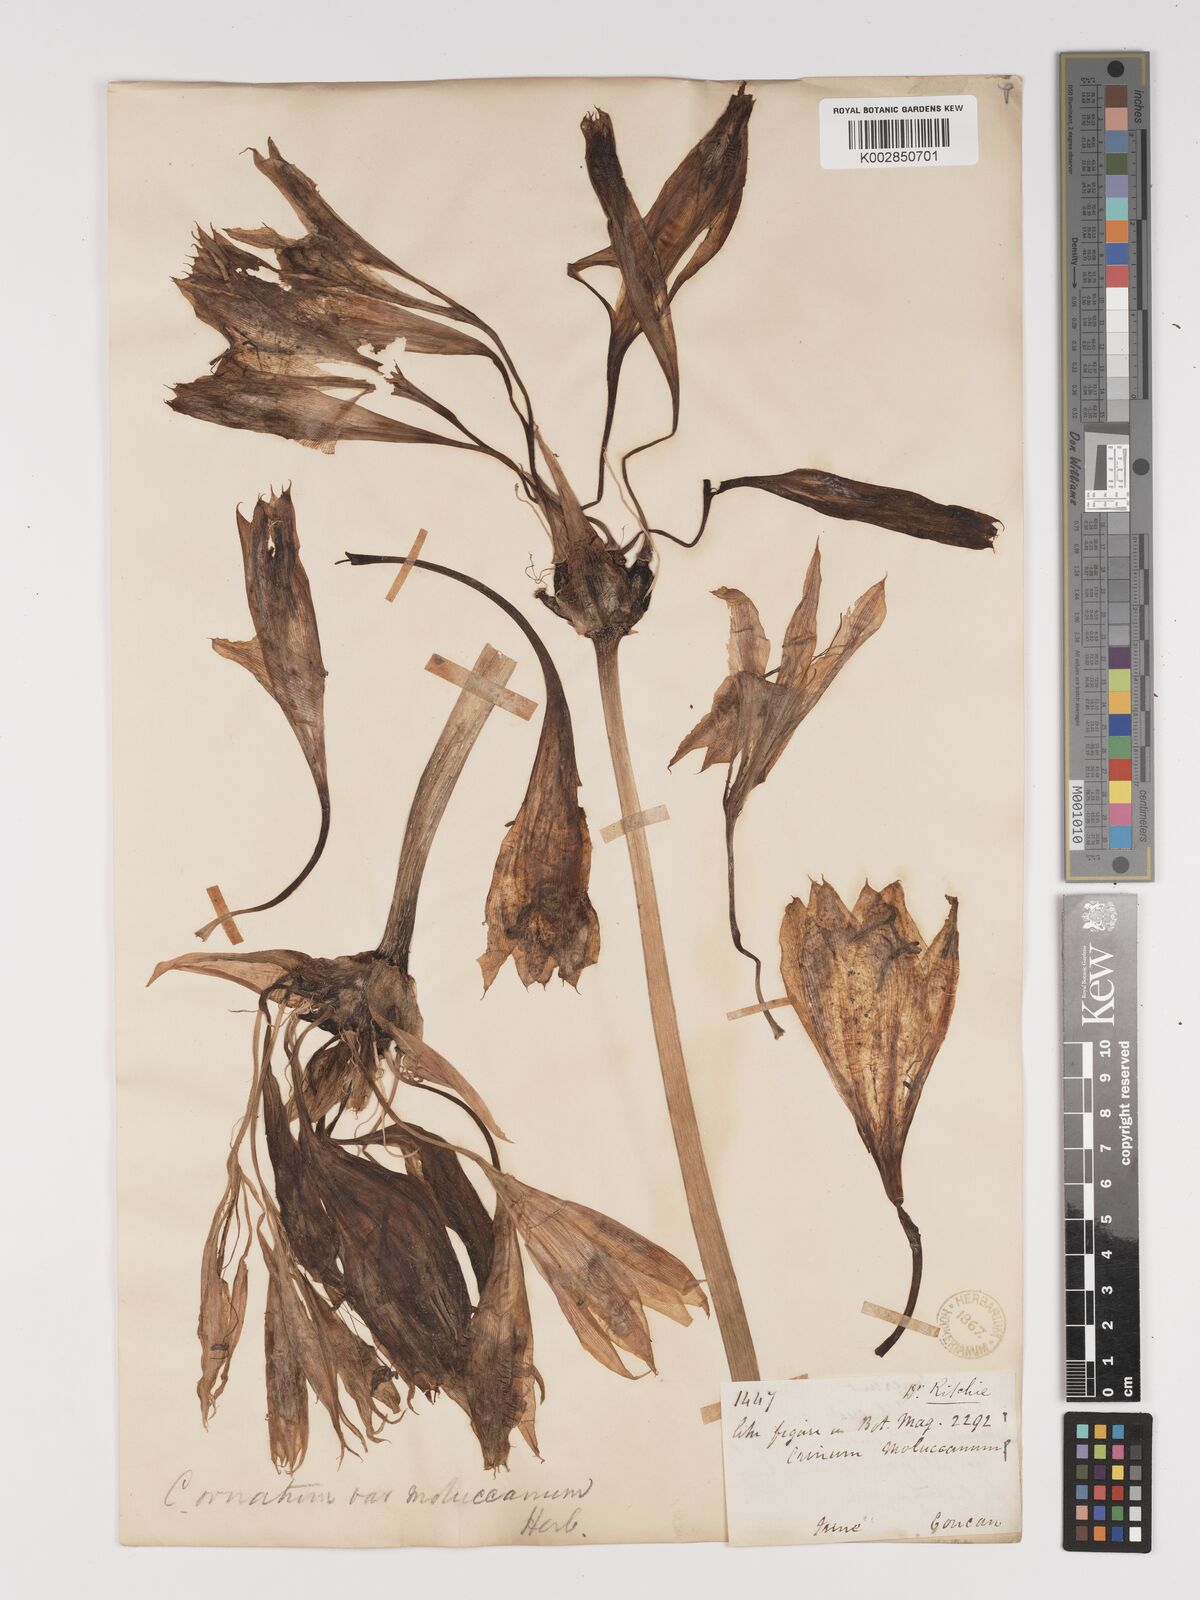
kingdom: Plantae
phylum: Tracheophyta
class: Liliopsida
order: Asparagales
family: Amaryllidaceae
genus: Crinum
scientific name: Crinum latifolium
